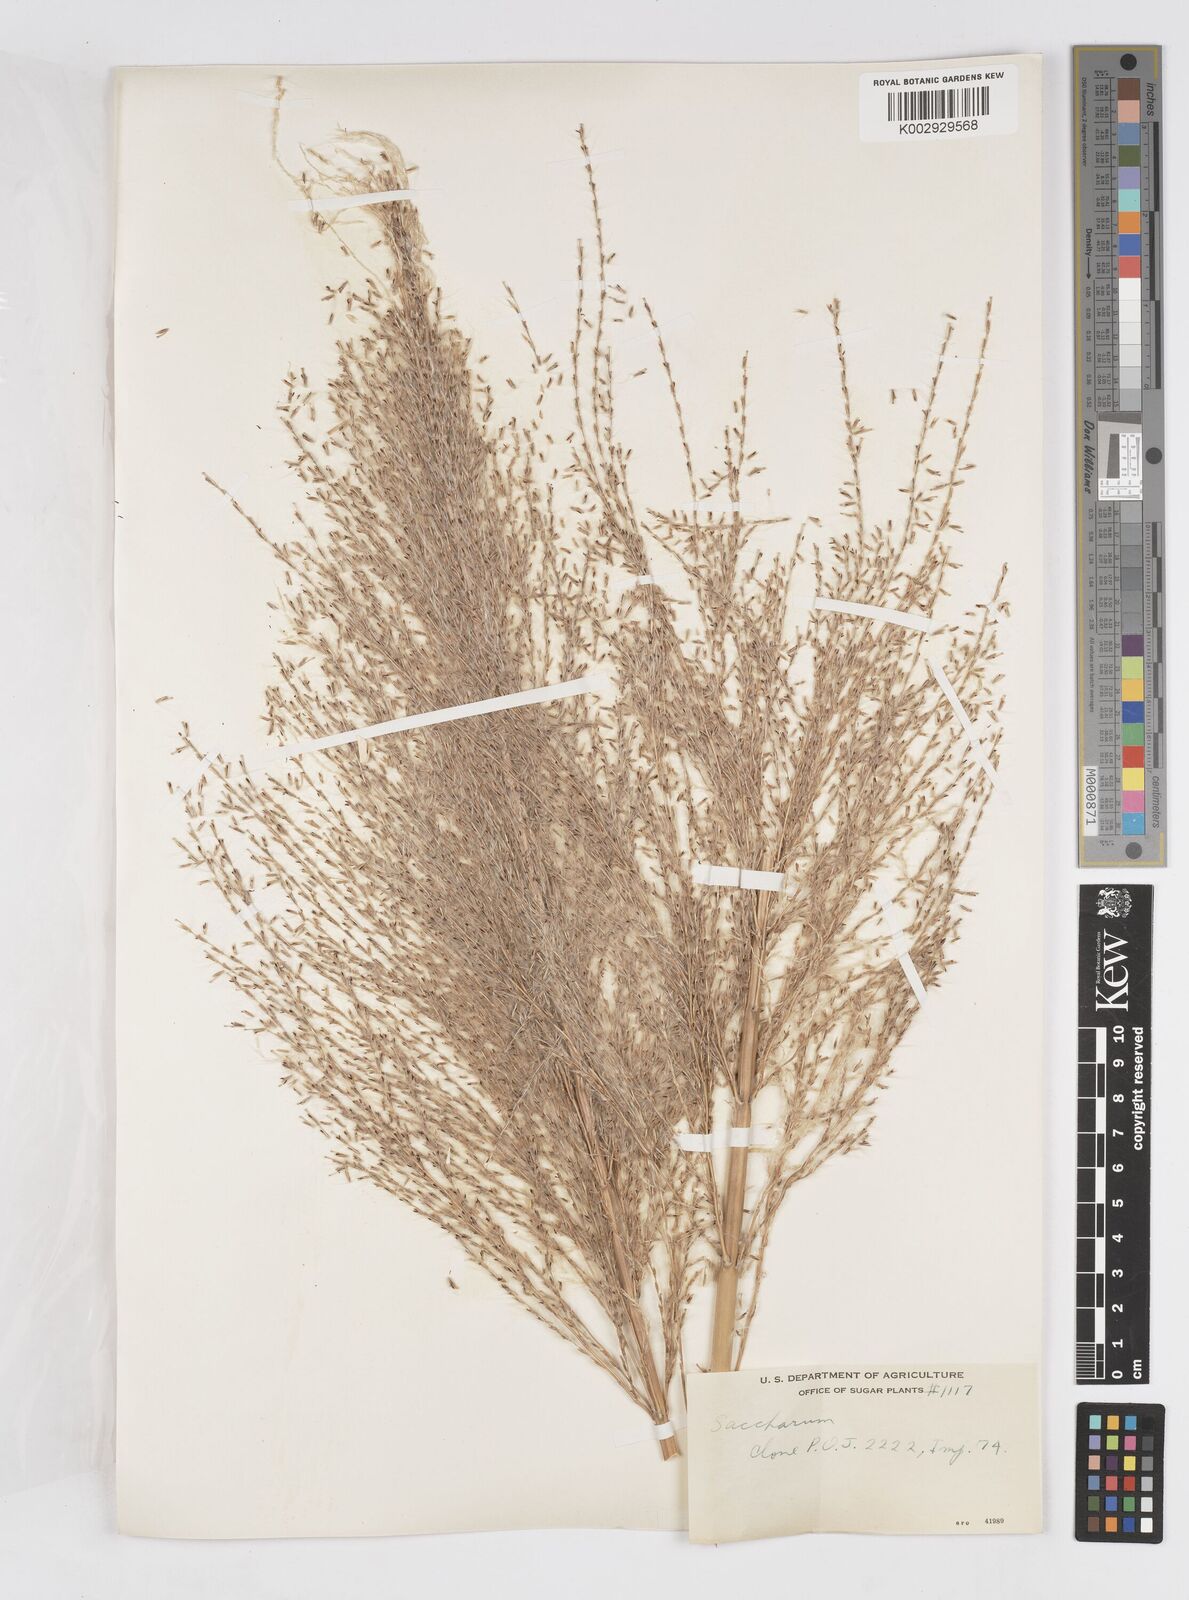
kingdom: Plantae
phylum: Tracheophyta
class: Liliopsida
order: Poales
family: Poaceae
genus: Saccharum
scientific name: Saccharum officinarum
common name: Sugarcane
